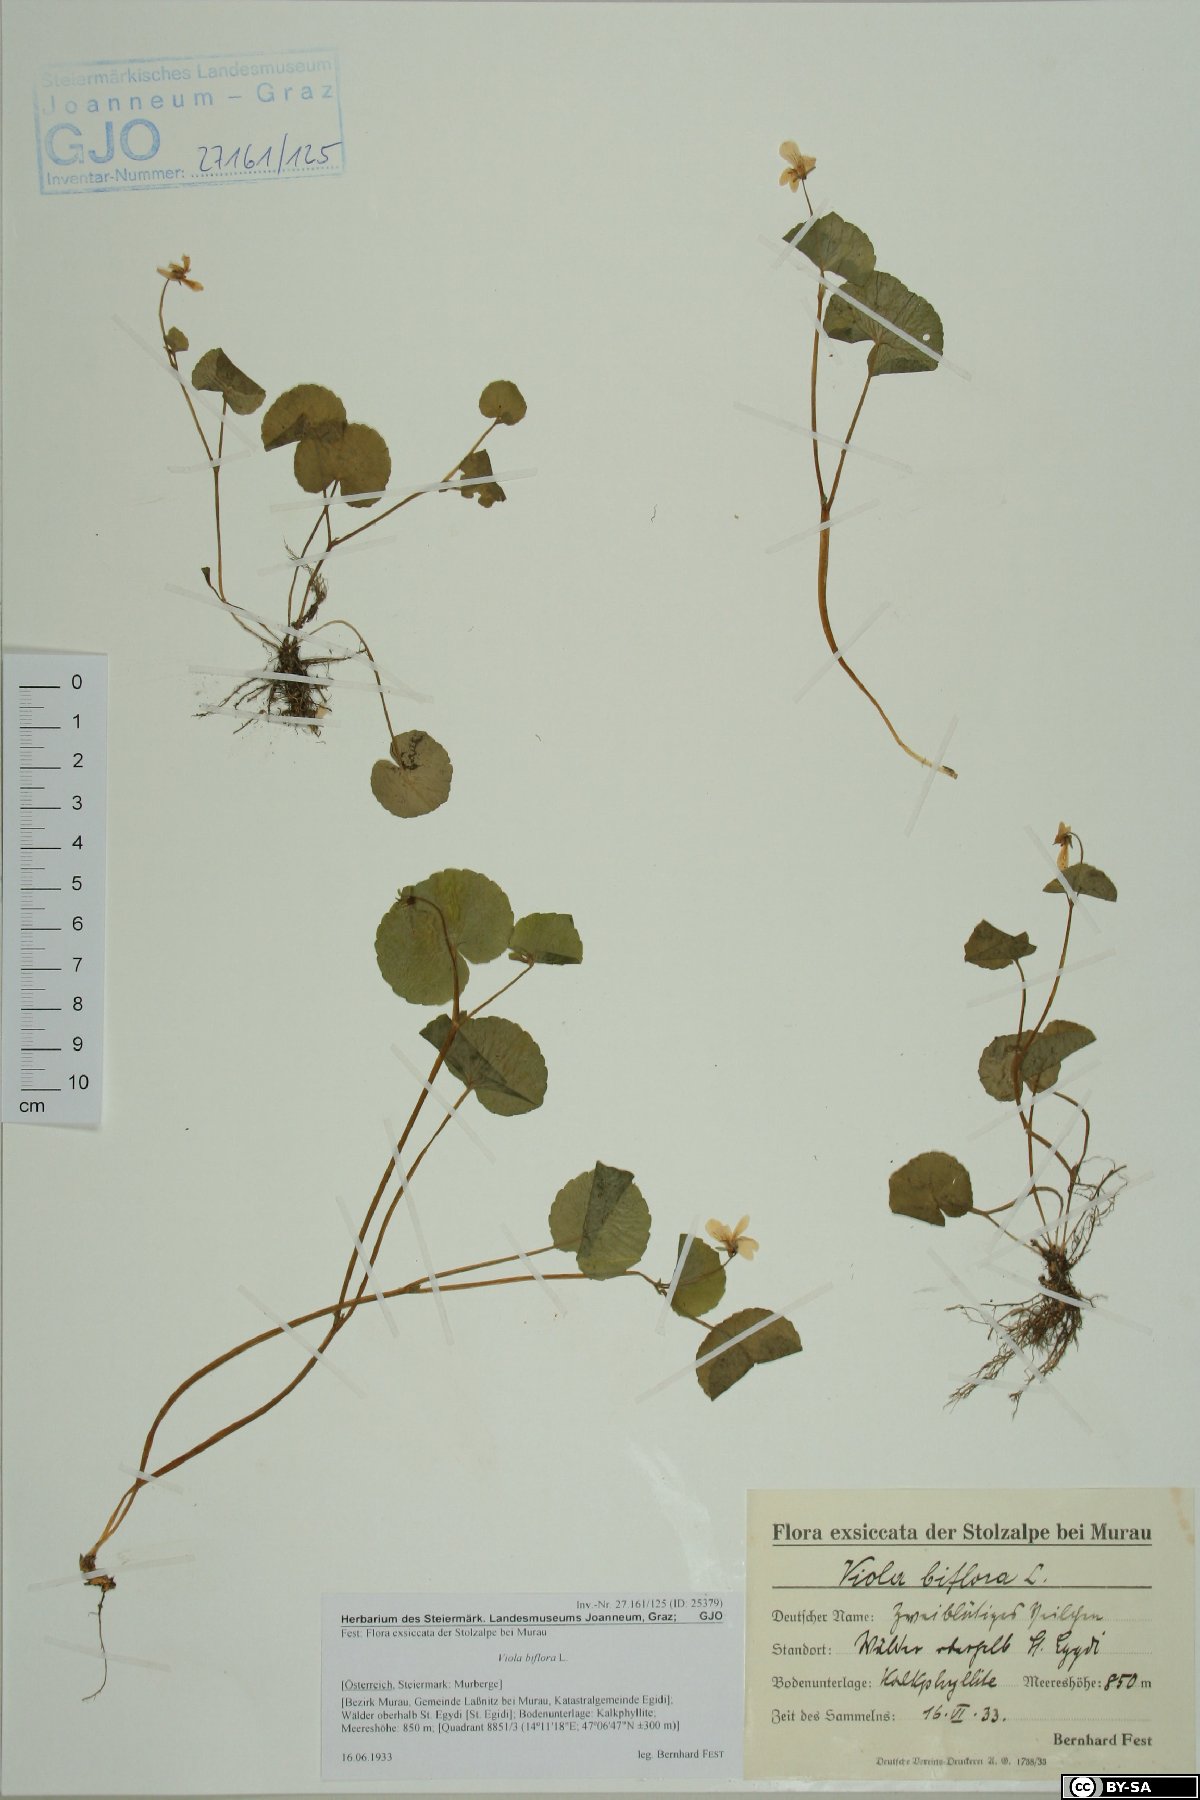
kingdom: Plantae
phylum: Tracheophyta
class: Magnoliopsida
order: Malpighiales
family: Violaceae
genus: Viola
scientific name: Viola biflora
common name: Alpine yellow violet
